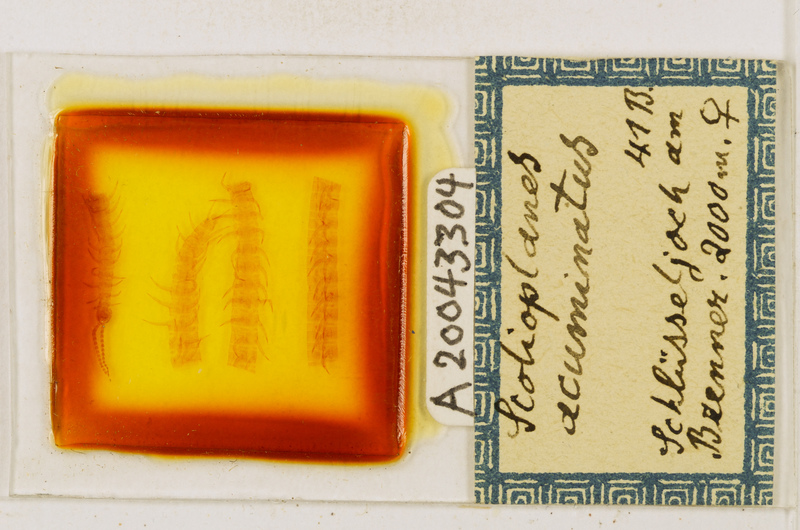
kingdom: Animalia
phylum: Arthropoda
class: Chilopoda
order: Geophilomorpha
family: Linotaeniidae
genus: Strigamia
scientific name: Strigamia acuminata
